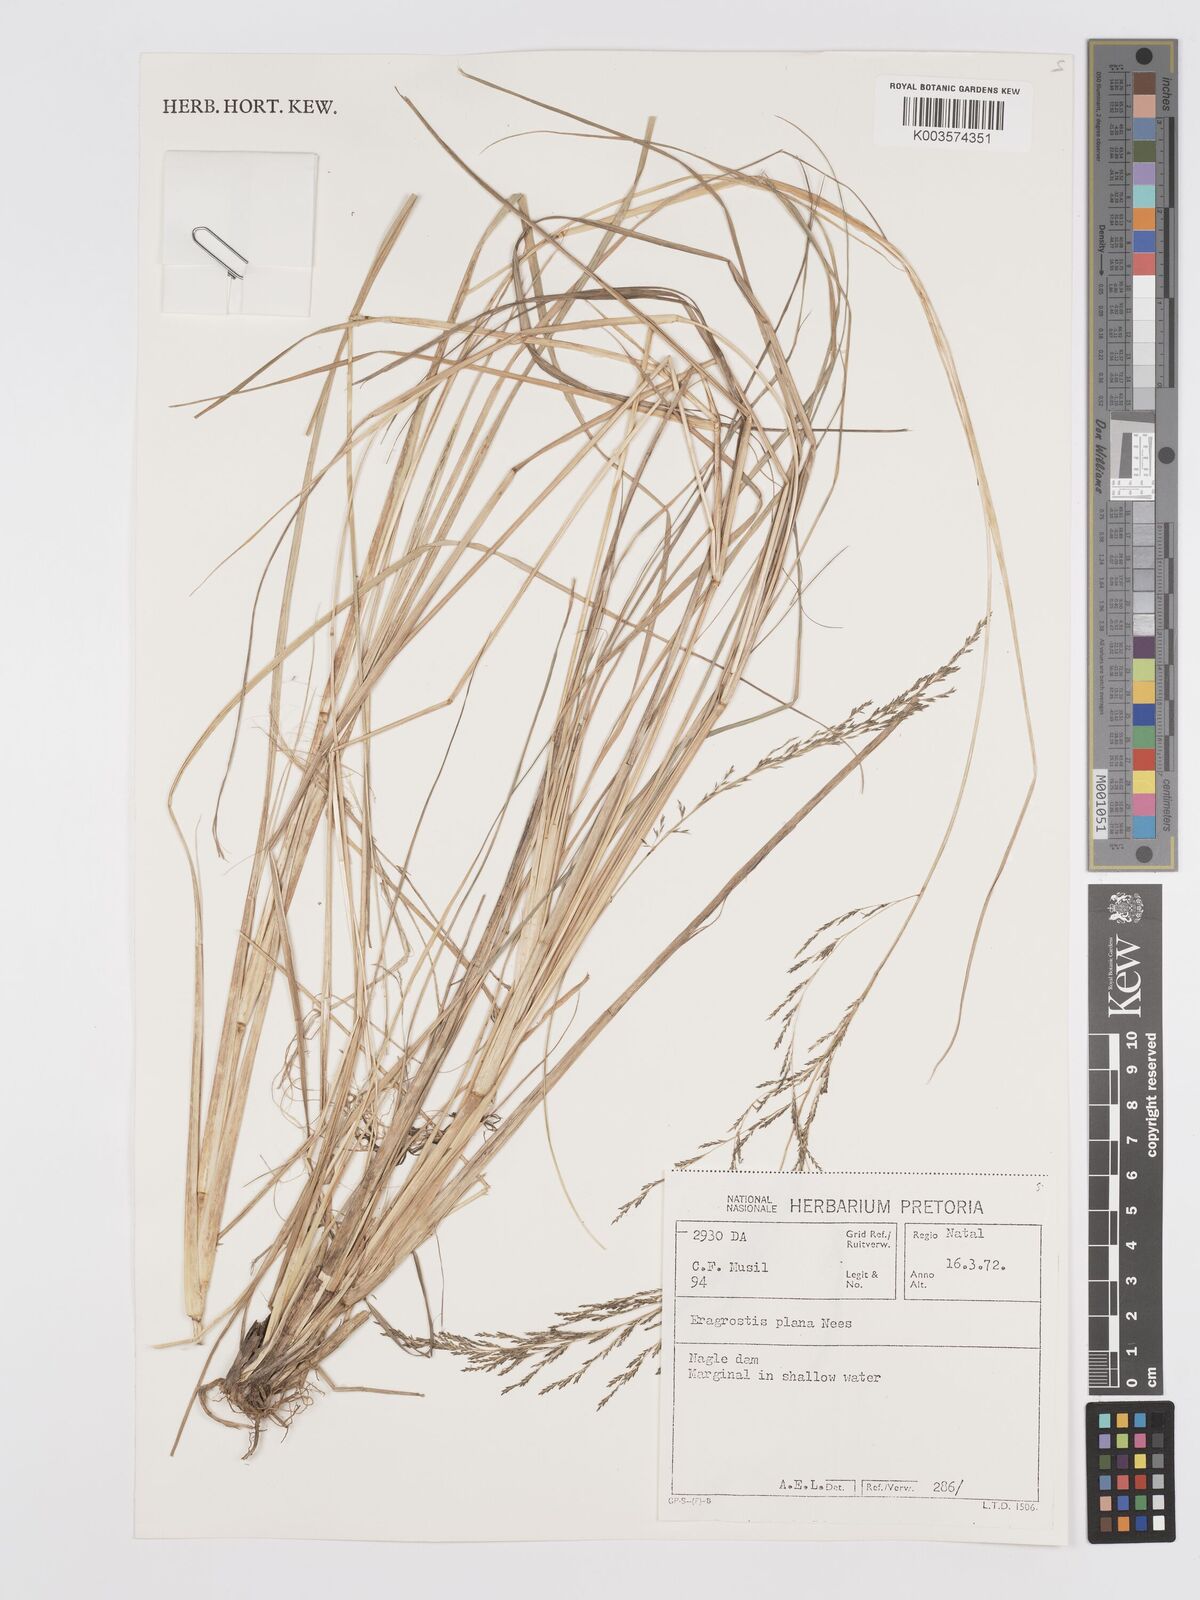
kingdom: Plantae
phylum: Tracheophyta
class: Liliopsida
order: Poales
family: Poaceae
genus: Eragrostis
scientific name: Eragrostis plana
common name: South african lovegrass
